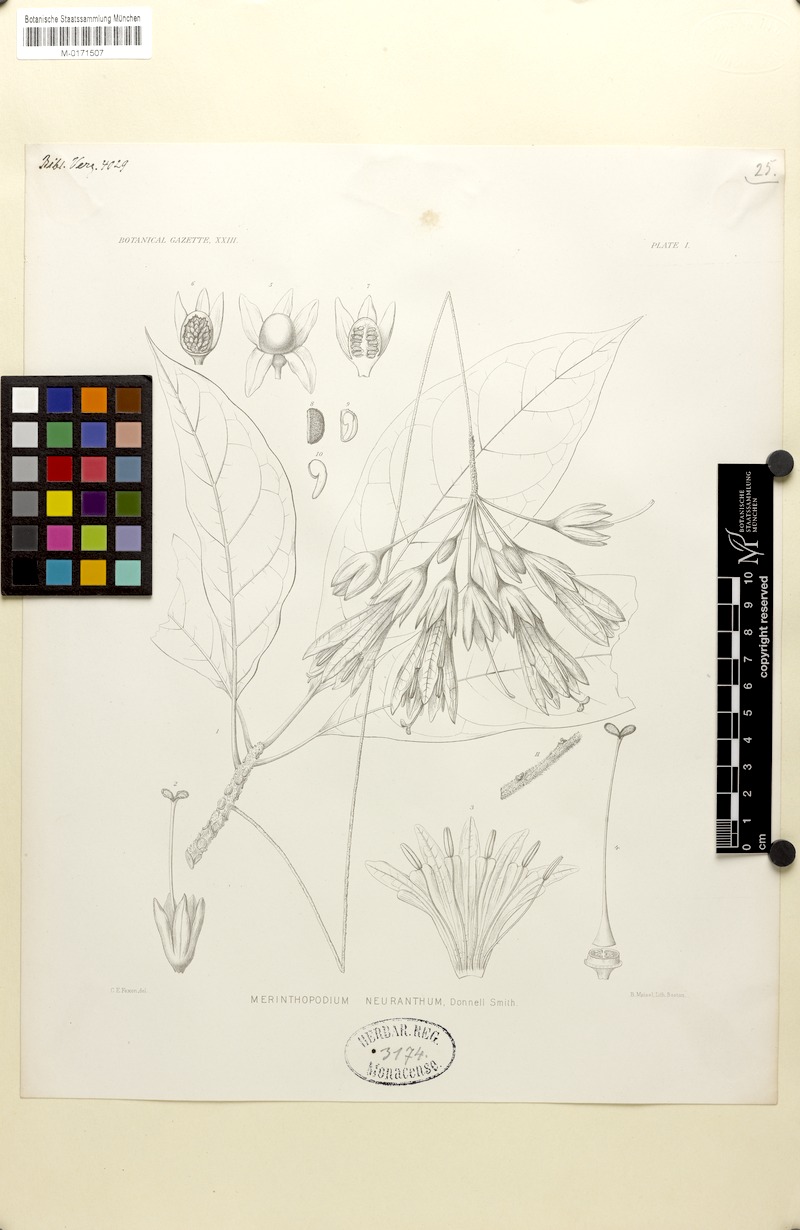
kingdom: Plantae
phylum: Tracheophyta
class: Magnoliopsida
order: Solanales
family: Solanaceae
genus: Merinthopodium
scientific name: Merinthopodium neuranthum
